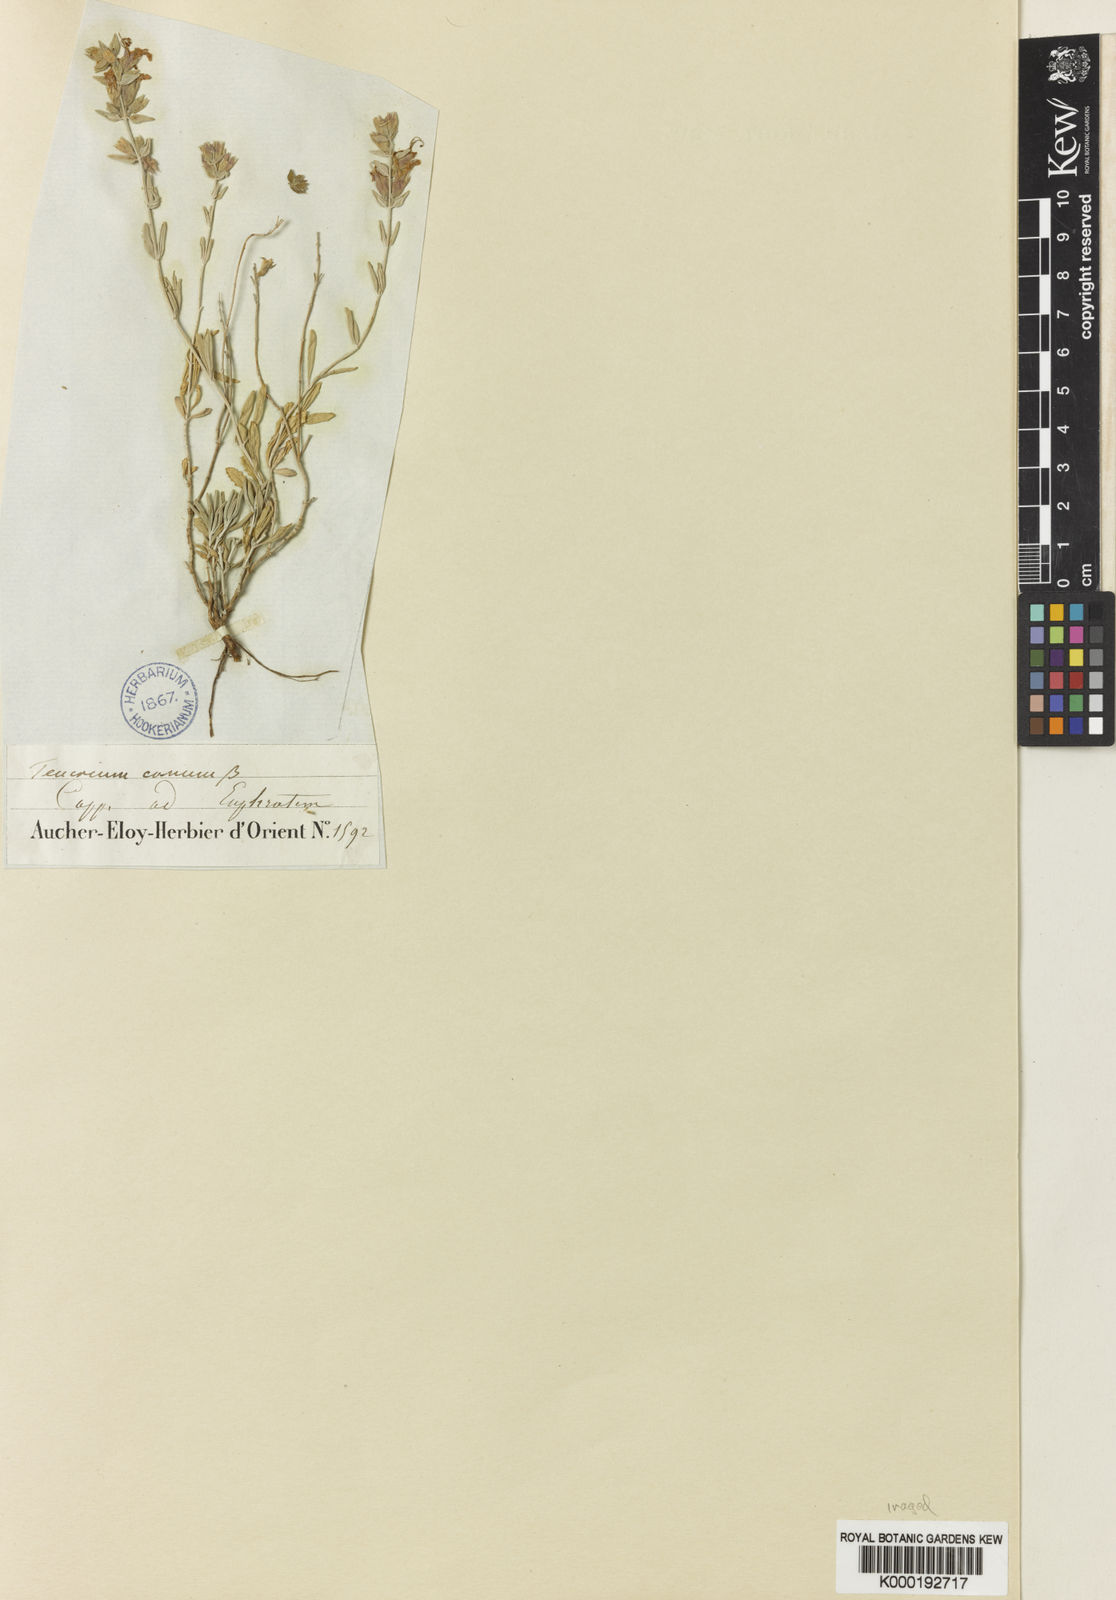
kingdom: Plantae
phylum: Tracheophyta
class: Magnoliopsida
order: Lamiales
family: Lamiaceae
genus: Teucrium
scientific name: Teucrium
